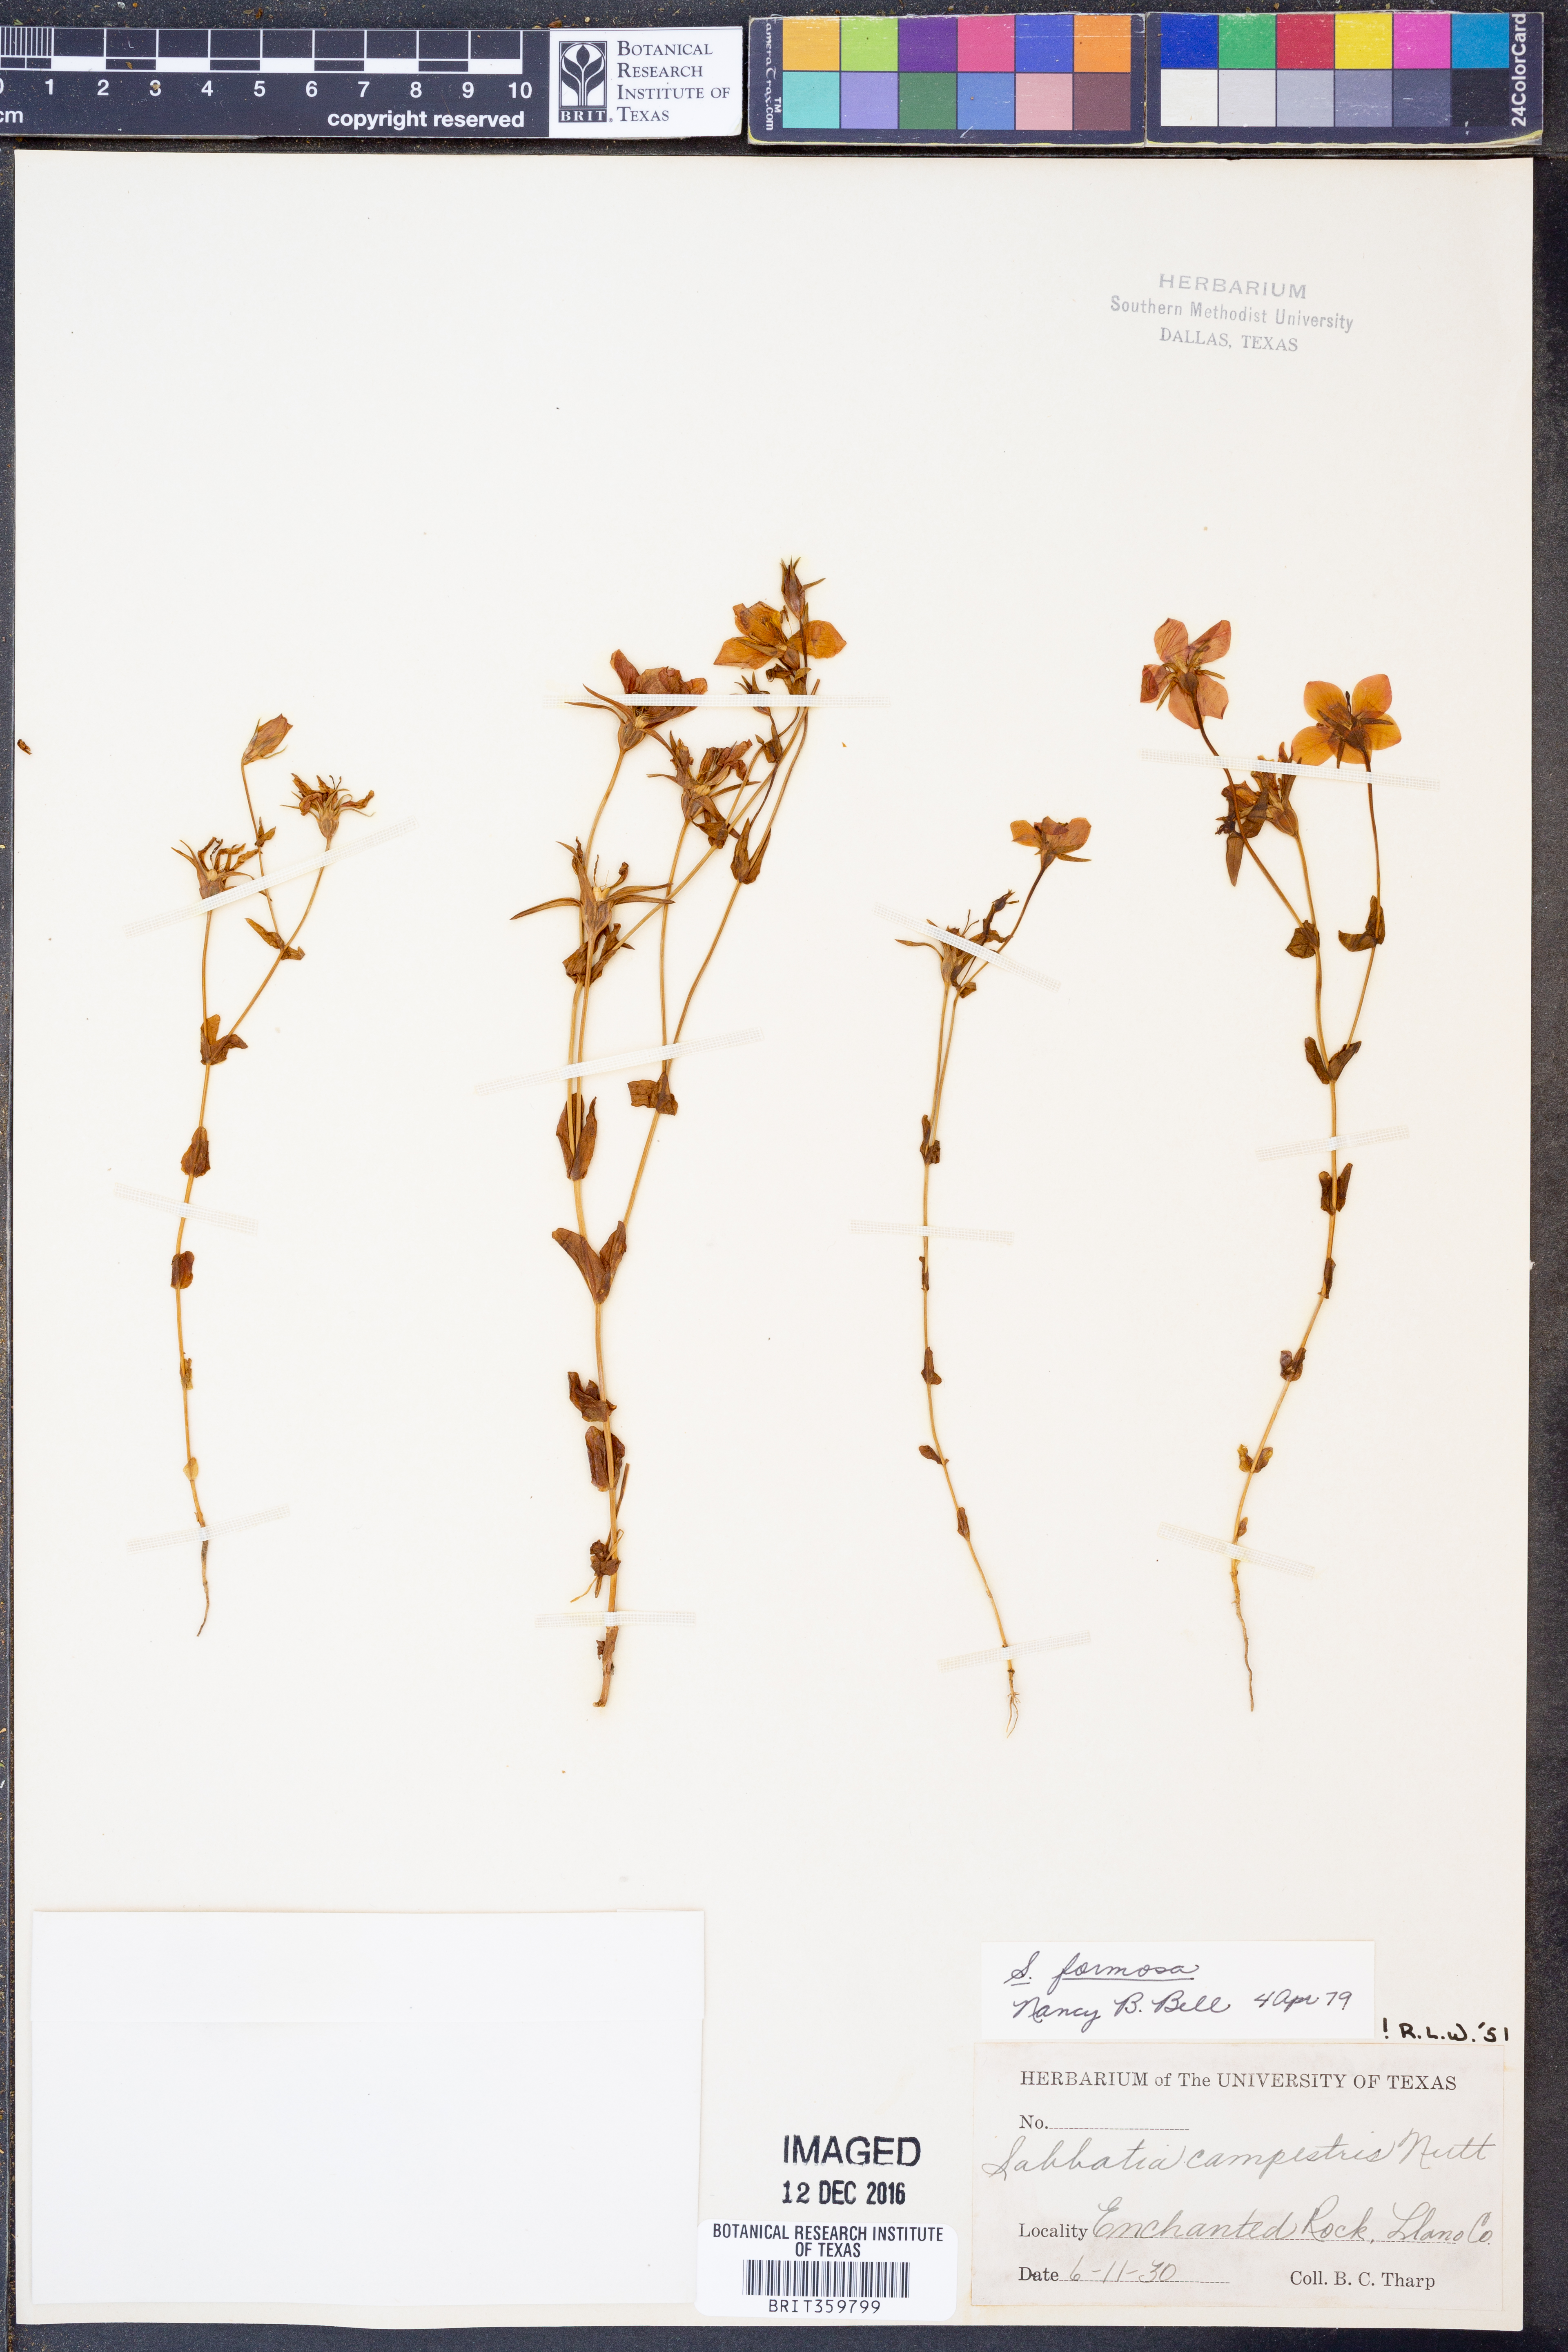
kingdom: Plantae
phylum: Tracheophyta
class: Magnoliopsida
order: Gentianales
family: Gentianaceae
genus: Sabatia
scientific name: Sabatia formosa
